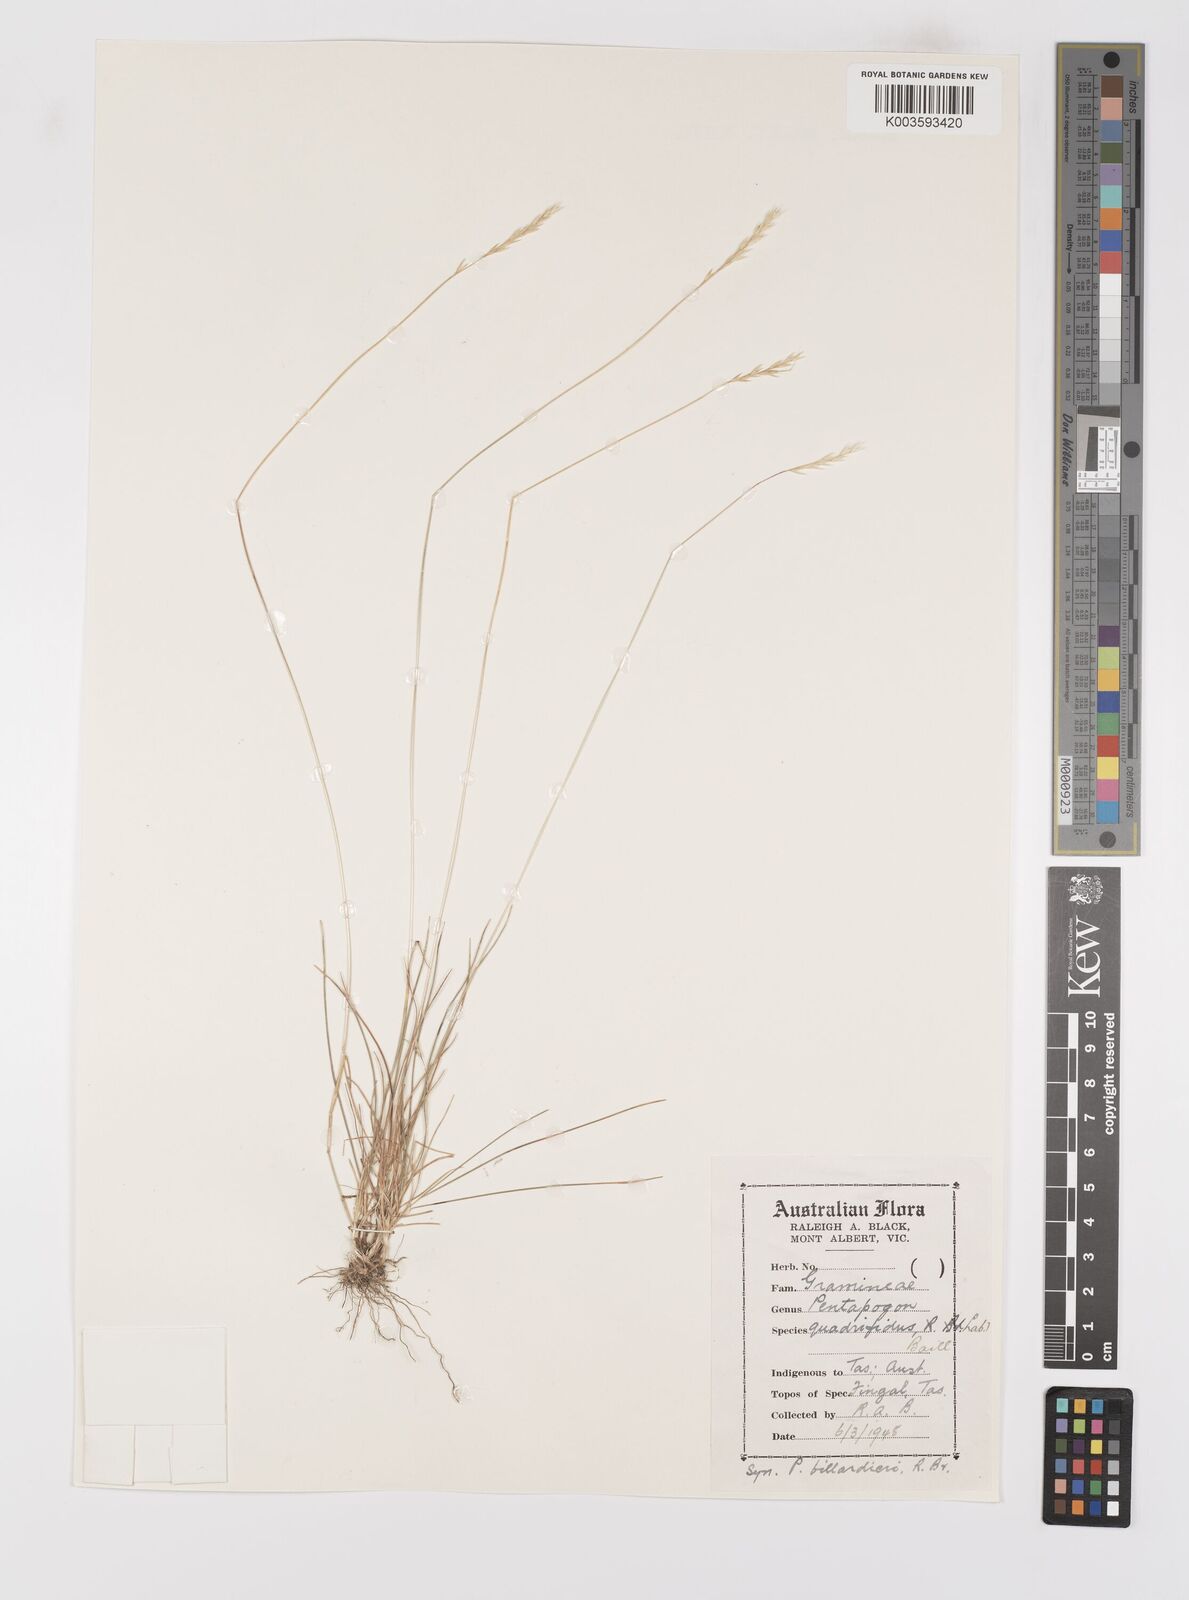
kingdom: Plantae
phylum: Tracheophyta
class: Liliopsida
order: Poales
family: Poaceae
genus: Pentapogon
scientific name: Pentapogon quadrifidus
